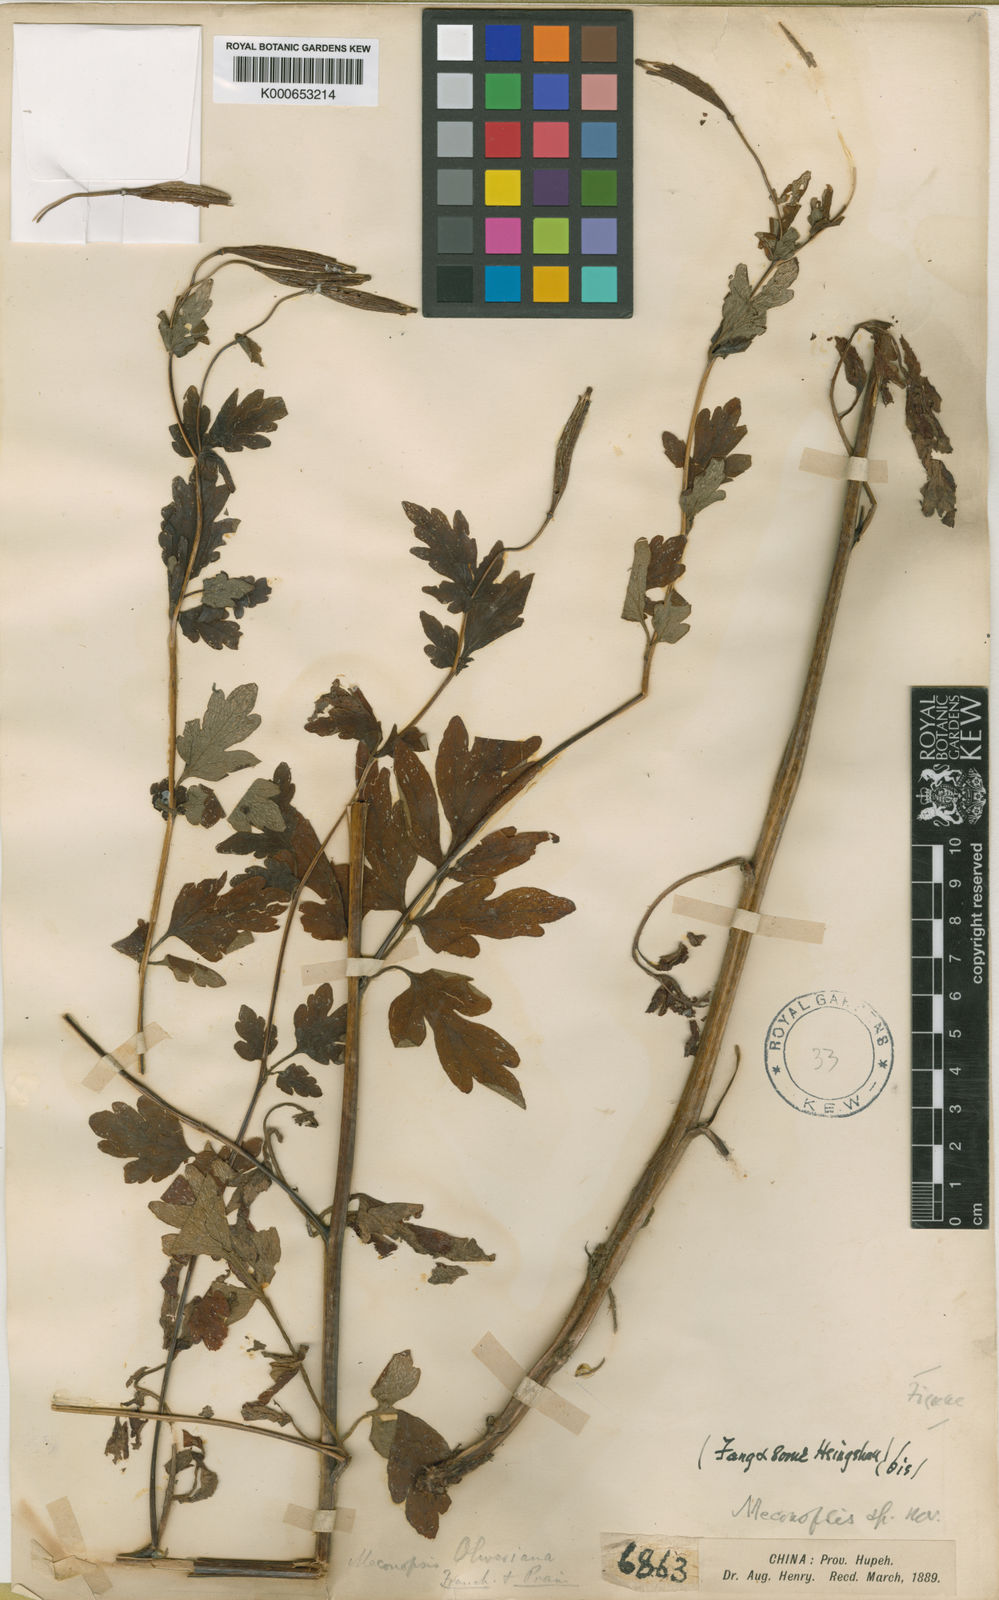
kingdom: Plantae
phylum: Tracheophyta
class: Magnoliopsida
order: Ranunculales
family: Papaveraceae
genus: Cathcartia
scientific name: Cathcartia oliveriana
